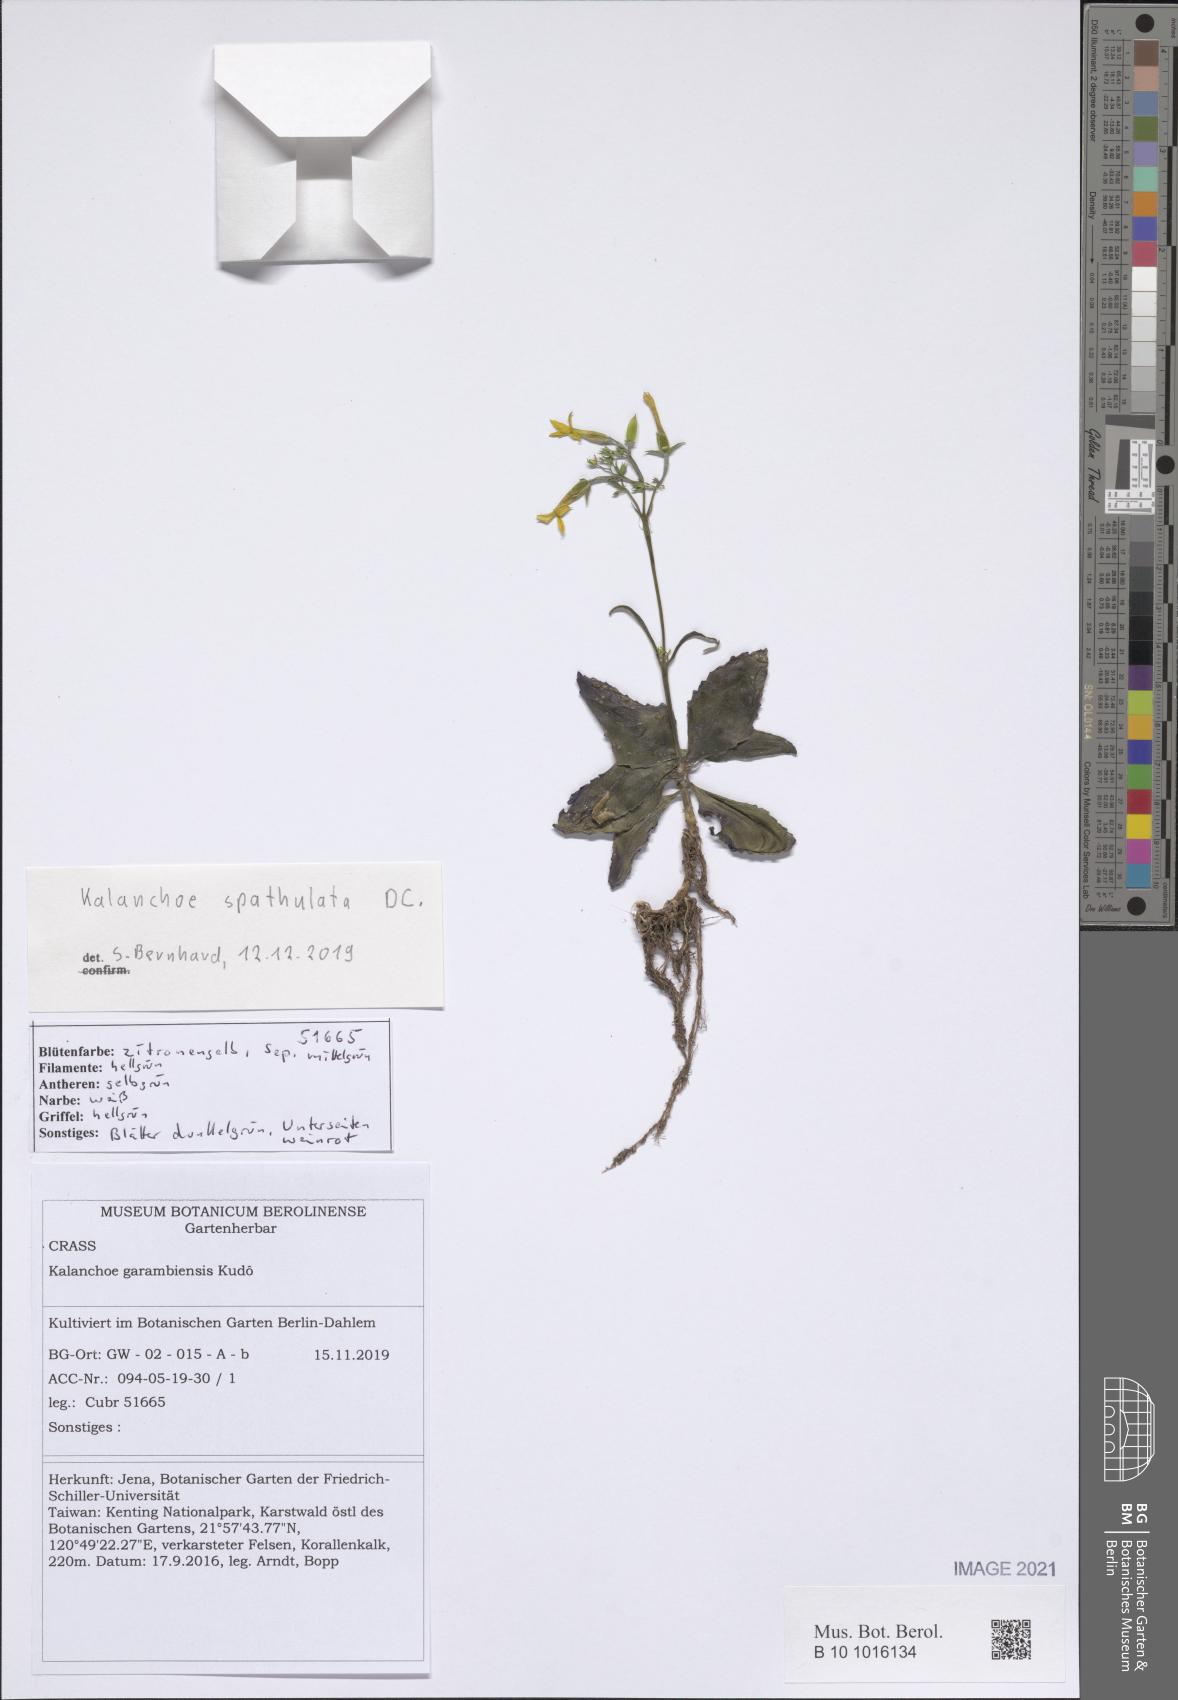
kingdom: Plantae
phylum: Tracheophyta
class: Magnoliopsida
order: Saxifragales
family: Crassulaceae
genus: Kalanchoe
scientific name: Kalanchoe integra
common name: Neverdie
